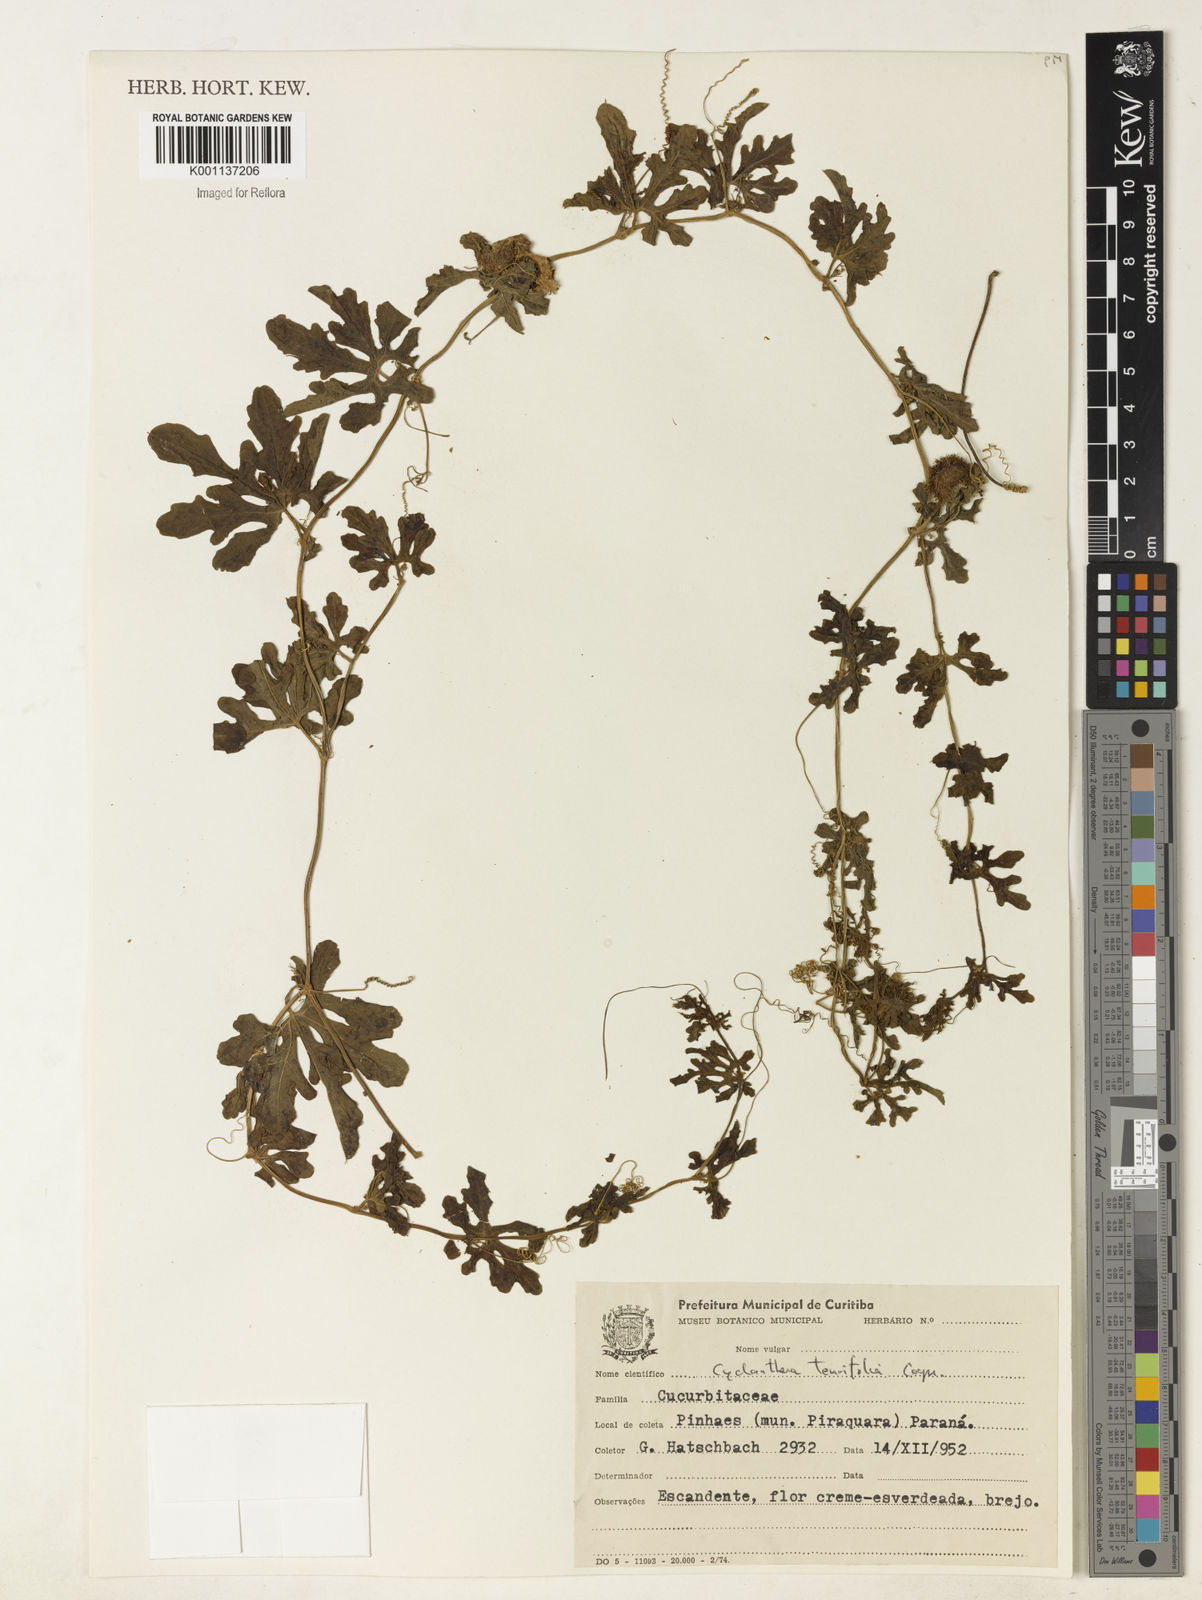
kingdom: Plantae
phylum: Tracheophyta
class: Magnoliopsida
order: Cucurbitales
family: Cucurbitaceae
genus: Cyclanthera
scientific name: Cyclanthera tenuifolia
